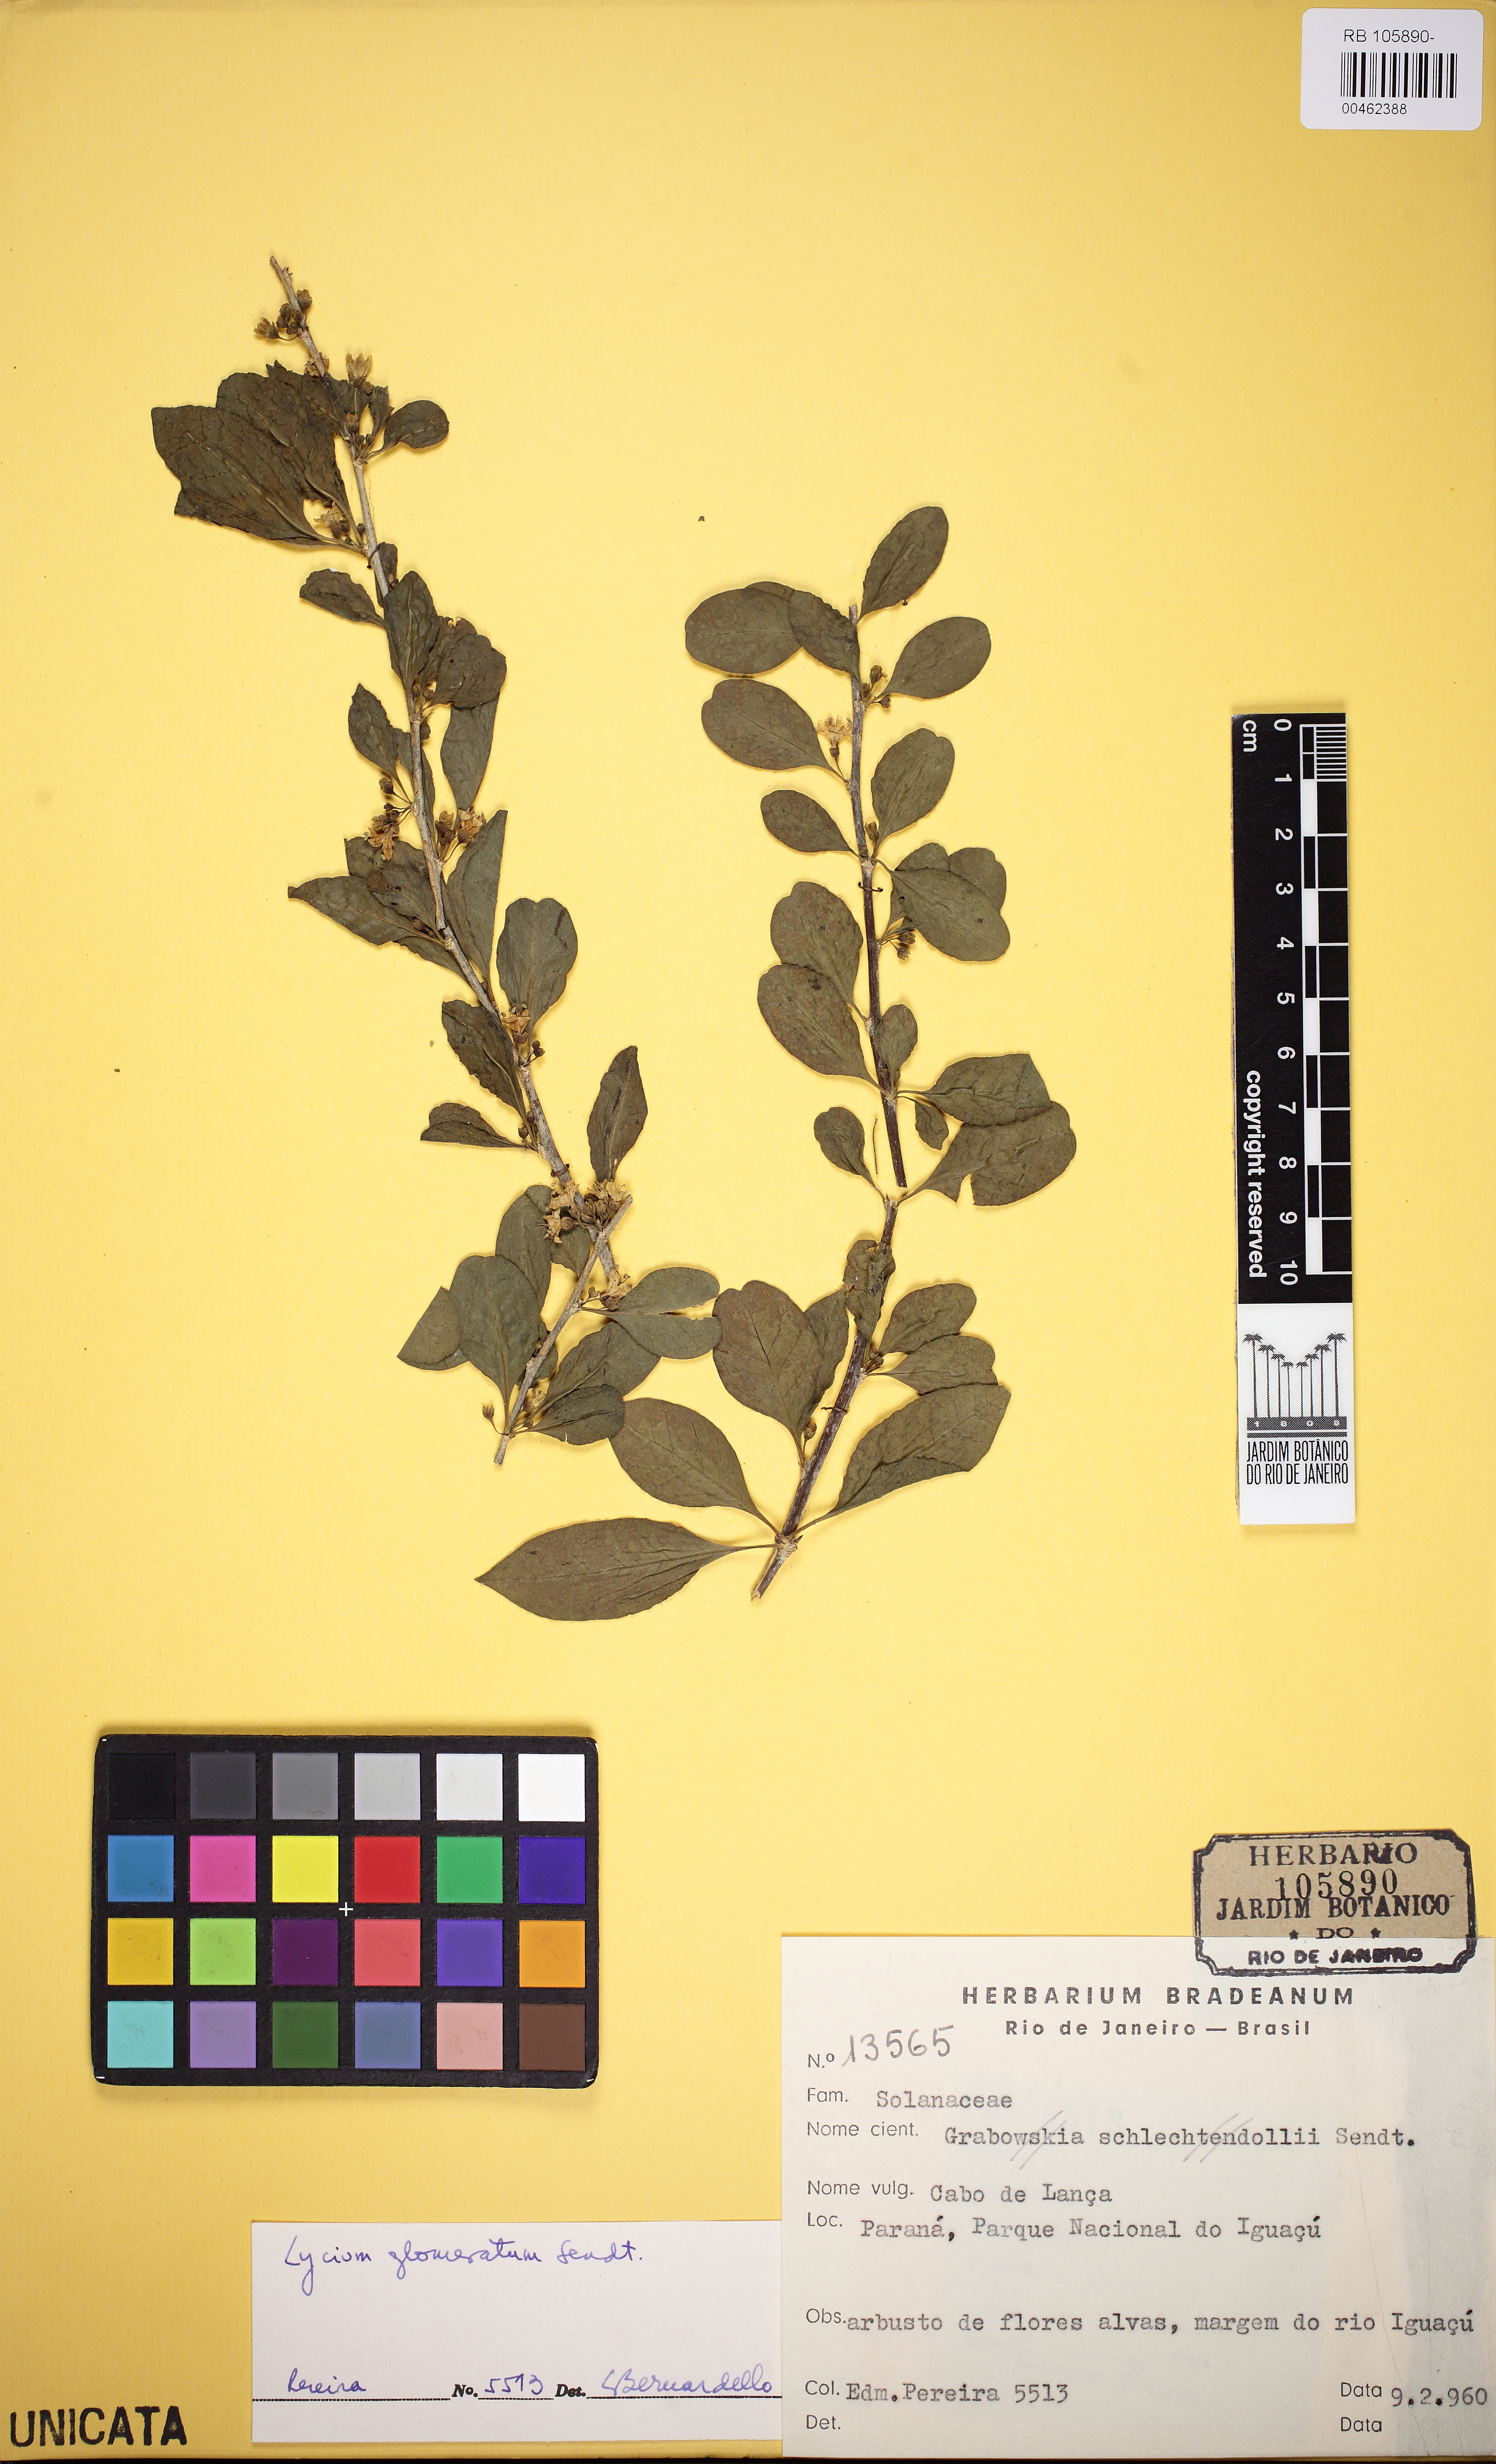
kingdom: Plantae
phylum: Tracheophyta
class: Magnoliopsida
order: Solanales
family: Solanaceae
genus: Lycium
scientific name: Lycium glomeratum
